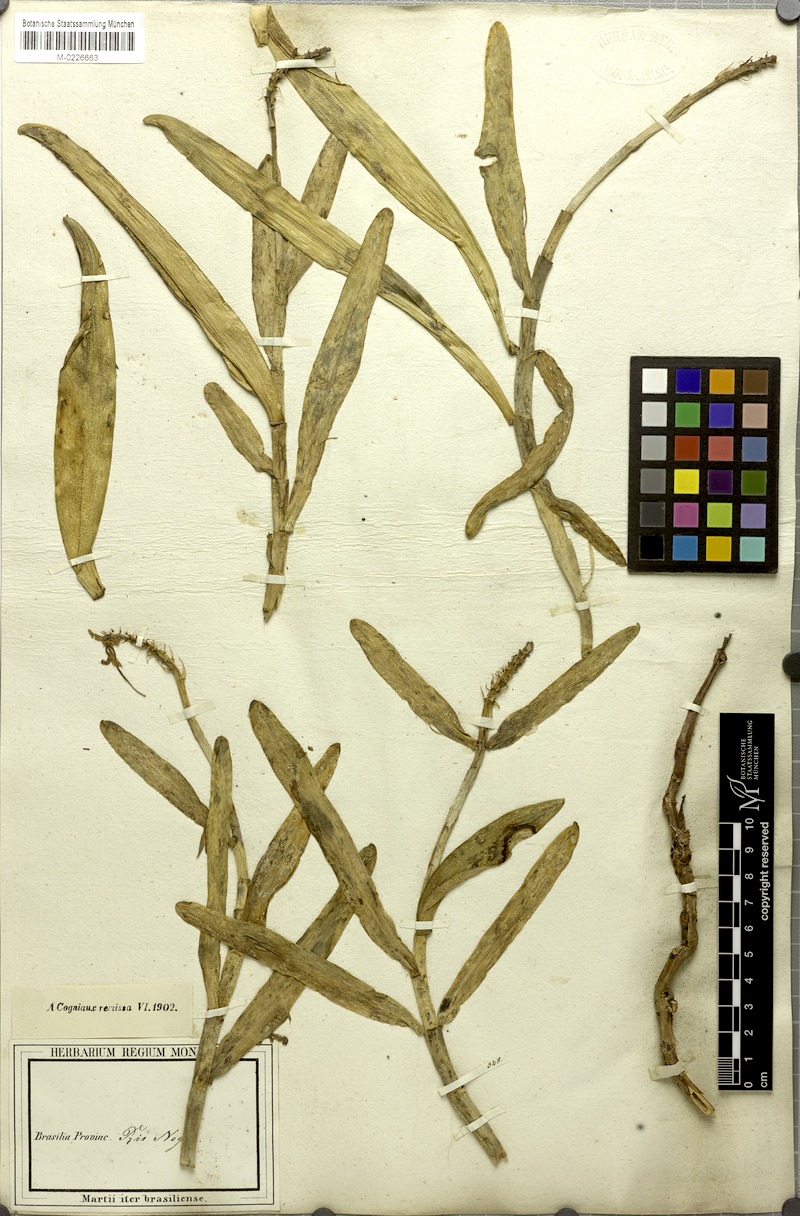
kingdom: Plantae
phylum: Tracheophyta
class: Liliopsida
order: Asparagales
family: Orchidaceae
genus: Epidendrum
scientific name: Epidendrum flexuosum
